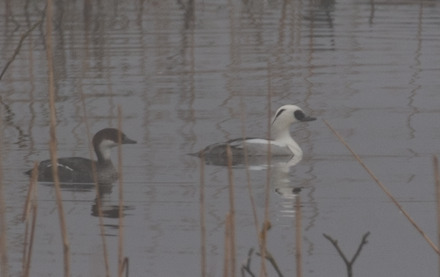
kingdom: Animalia
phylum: Chordata
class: Aves
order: Anseriformes
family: Anatidae
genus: Mergellus
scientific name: Mergellus albellus
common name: Lille skallesluger
